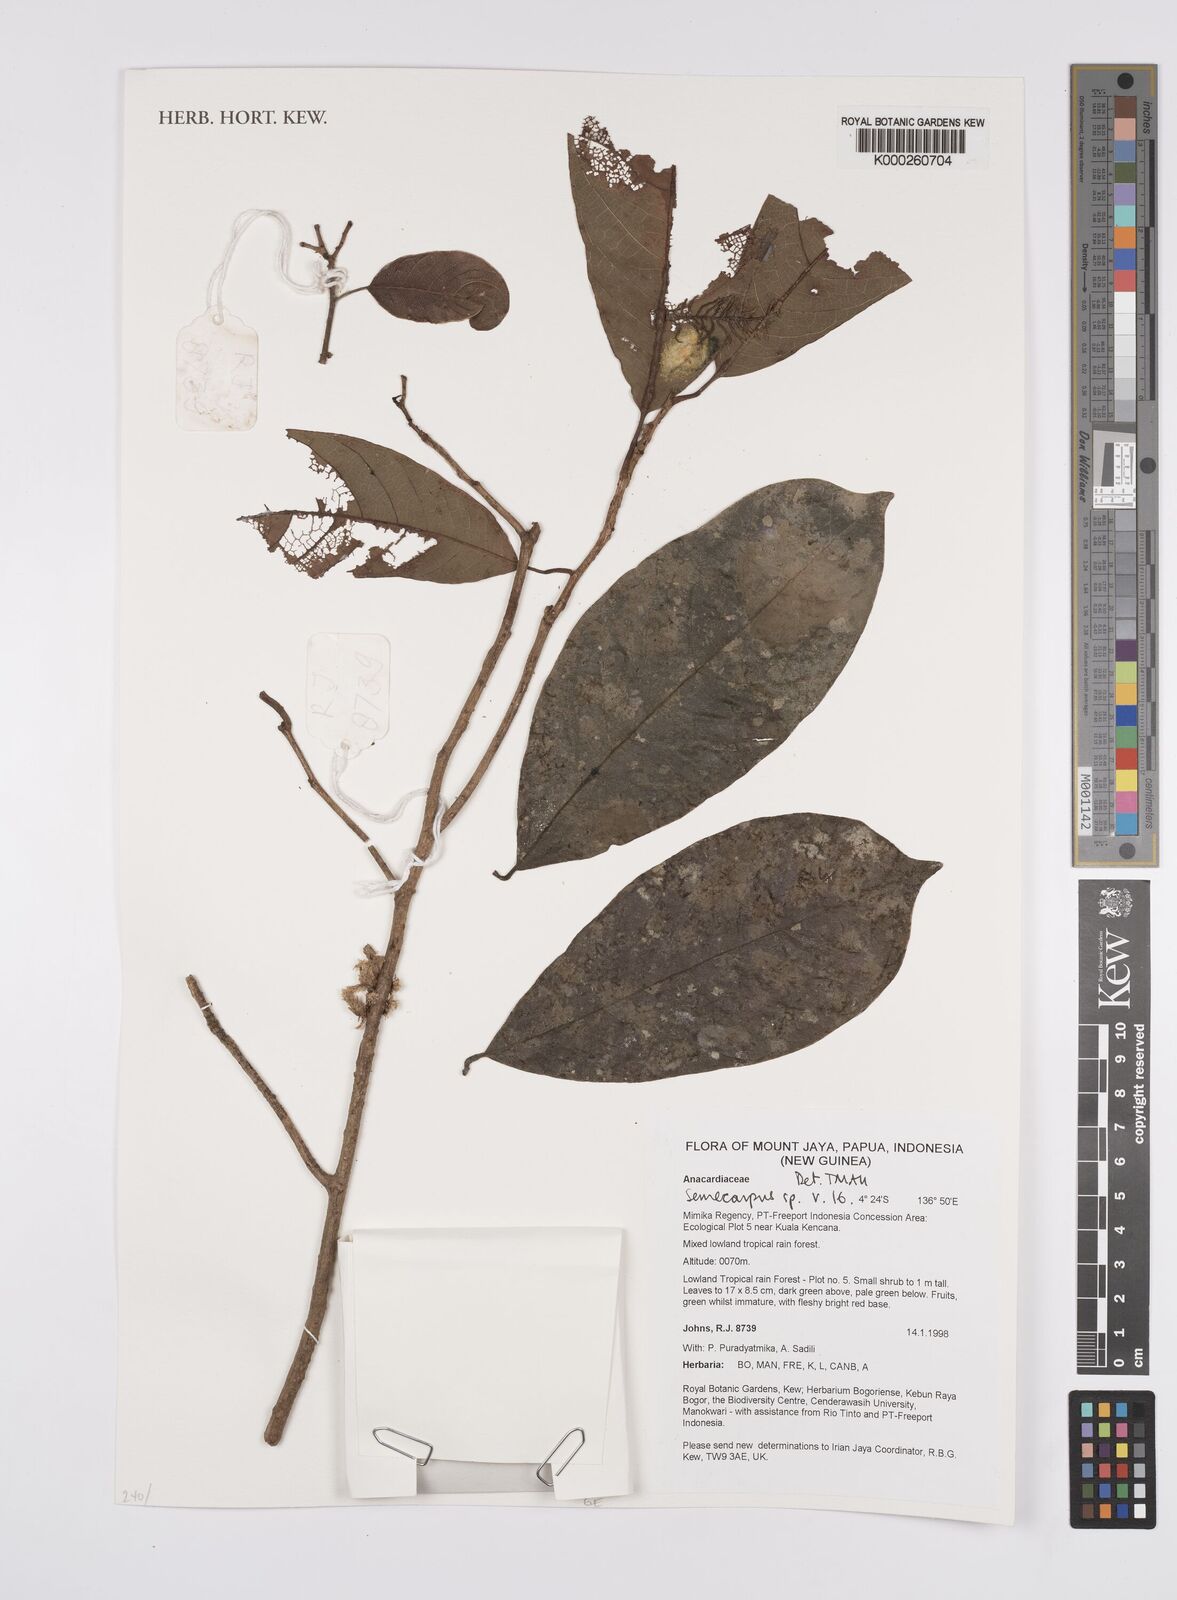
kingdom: Plantae
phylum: Tracheophyta
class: Magnoliopsida
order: Sapindales
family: Anacardiaceae
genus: Semecarpus
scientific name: Semecarpus rostratus
